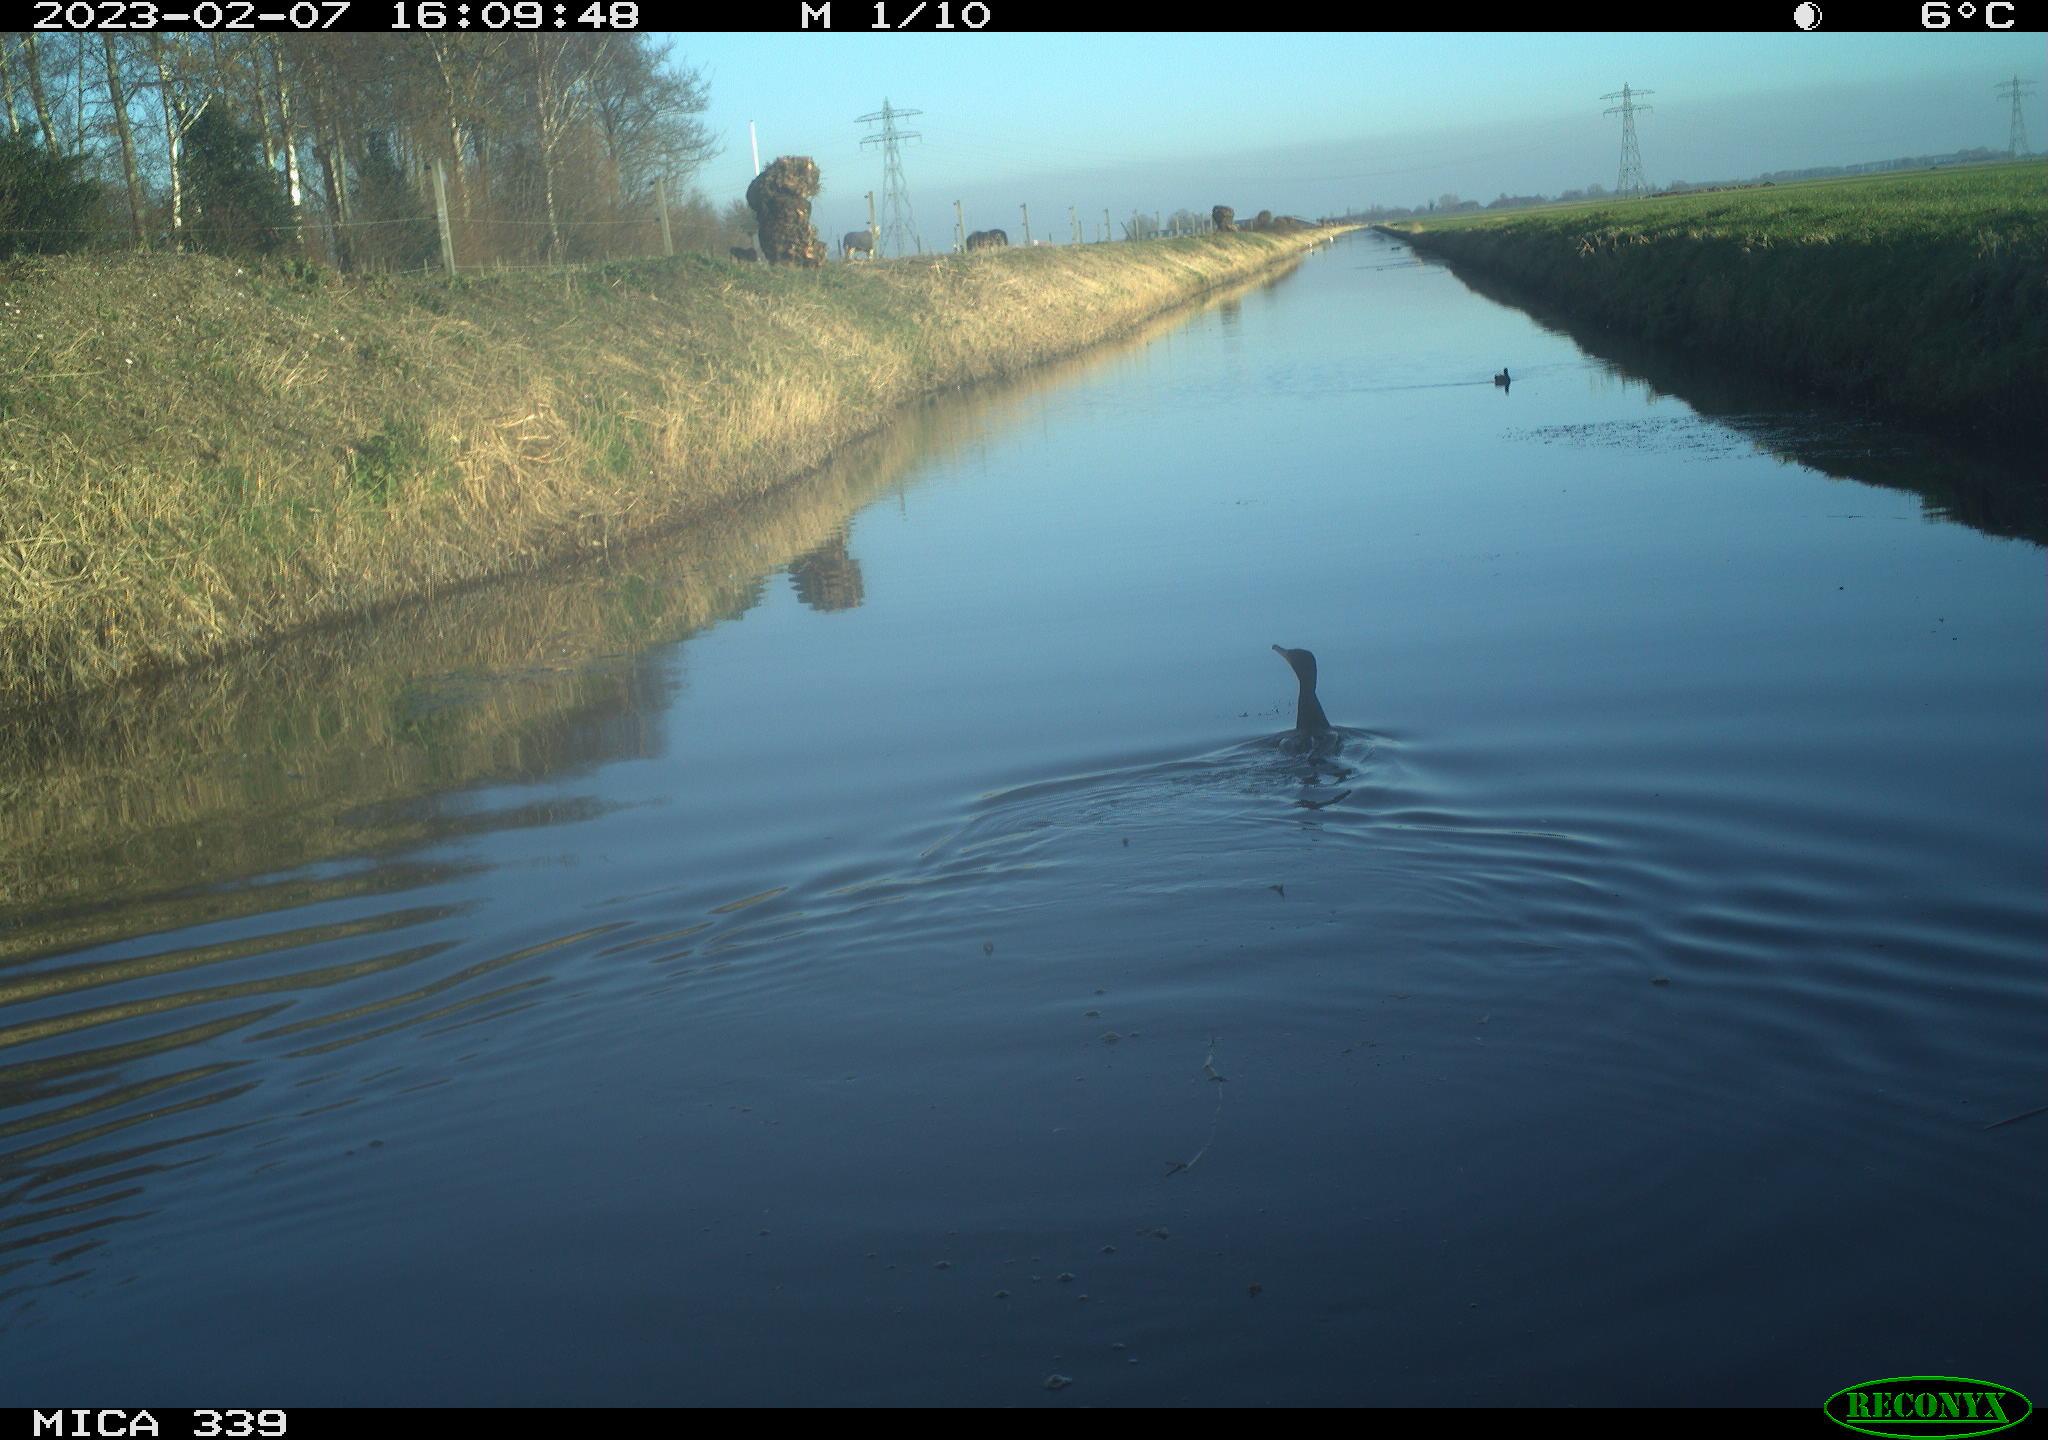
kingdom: Animalia
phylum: Chordata
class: Aves
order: Suliformes
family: Phalacrocoracidae
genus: Phalacrocorax
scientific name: Phalacrocorax carbo
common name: Great cormorant
